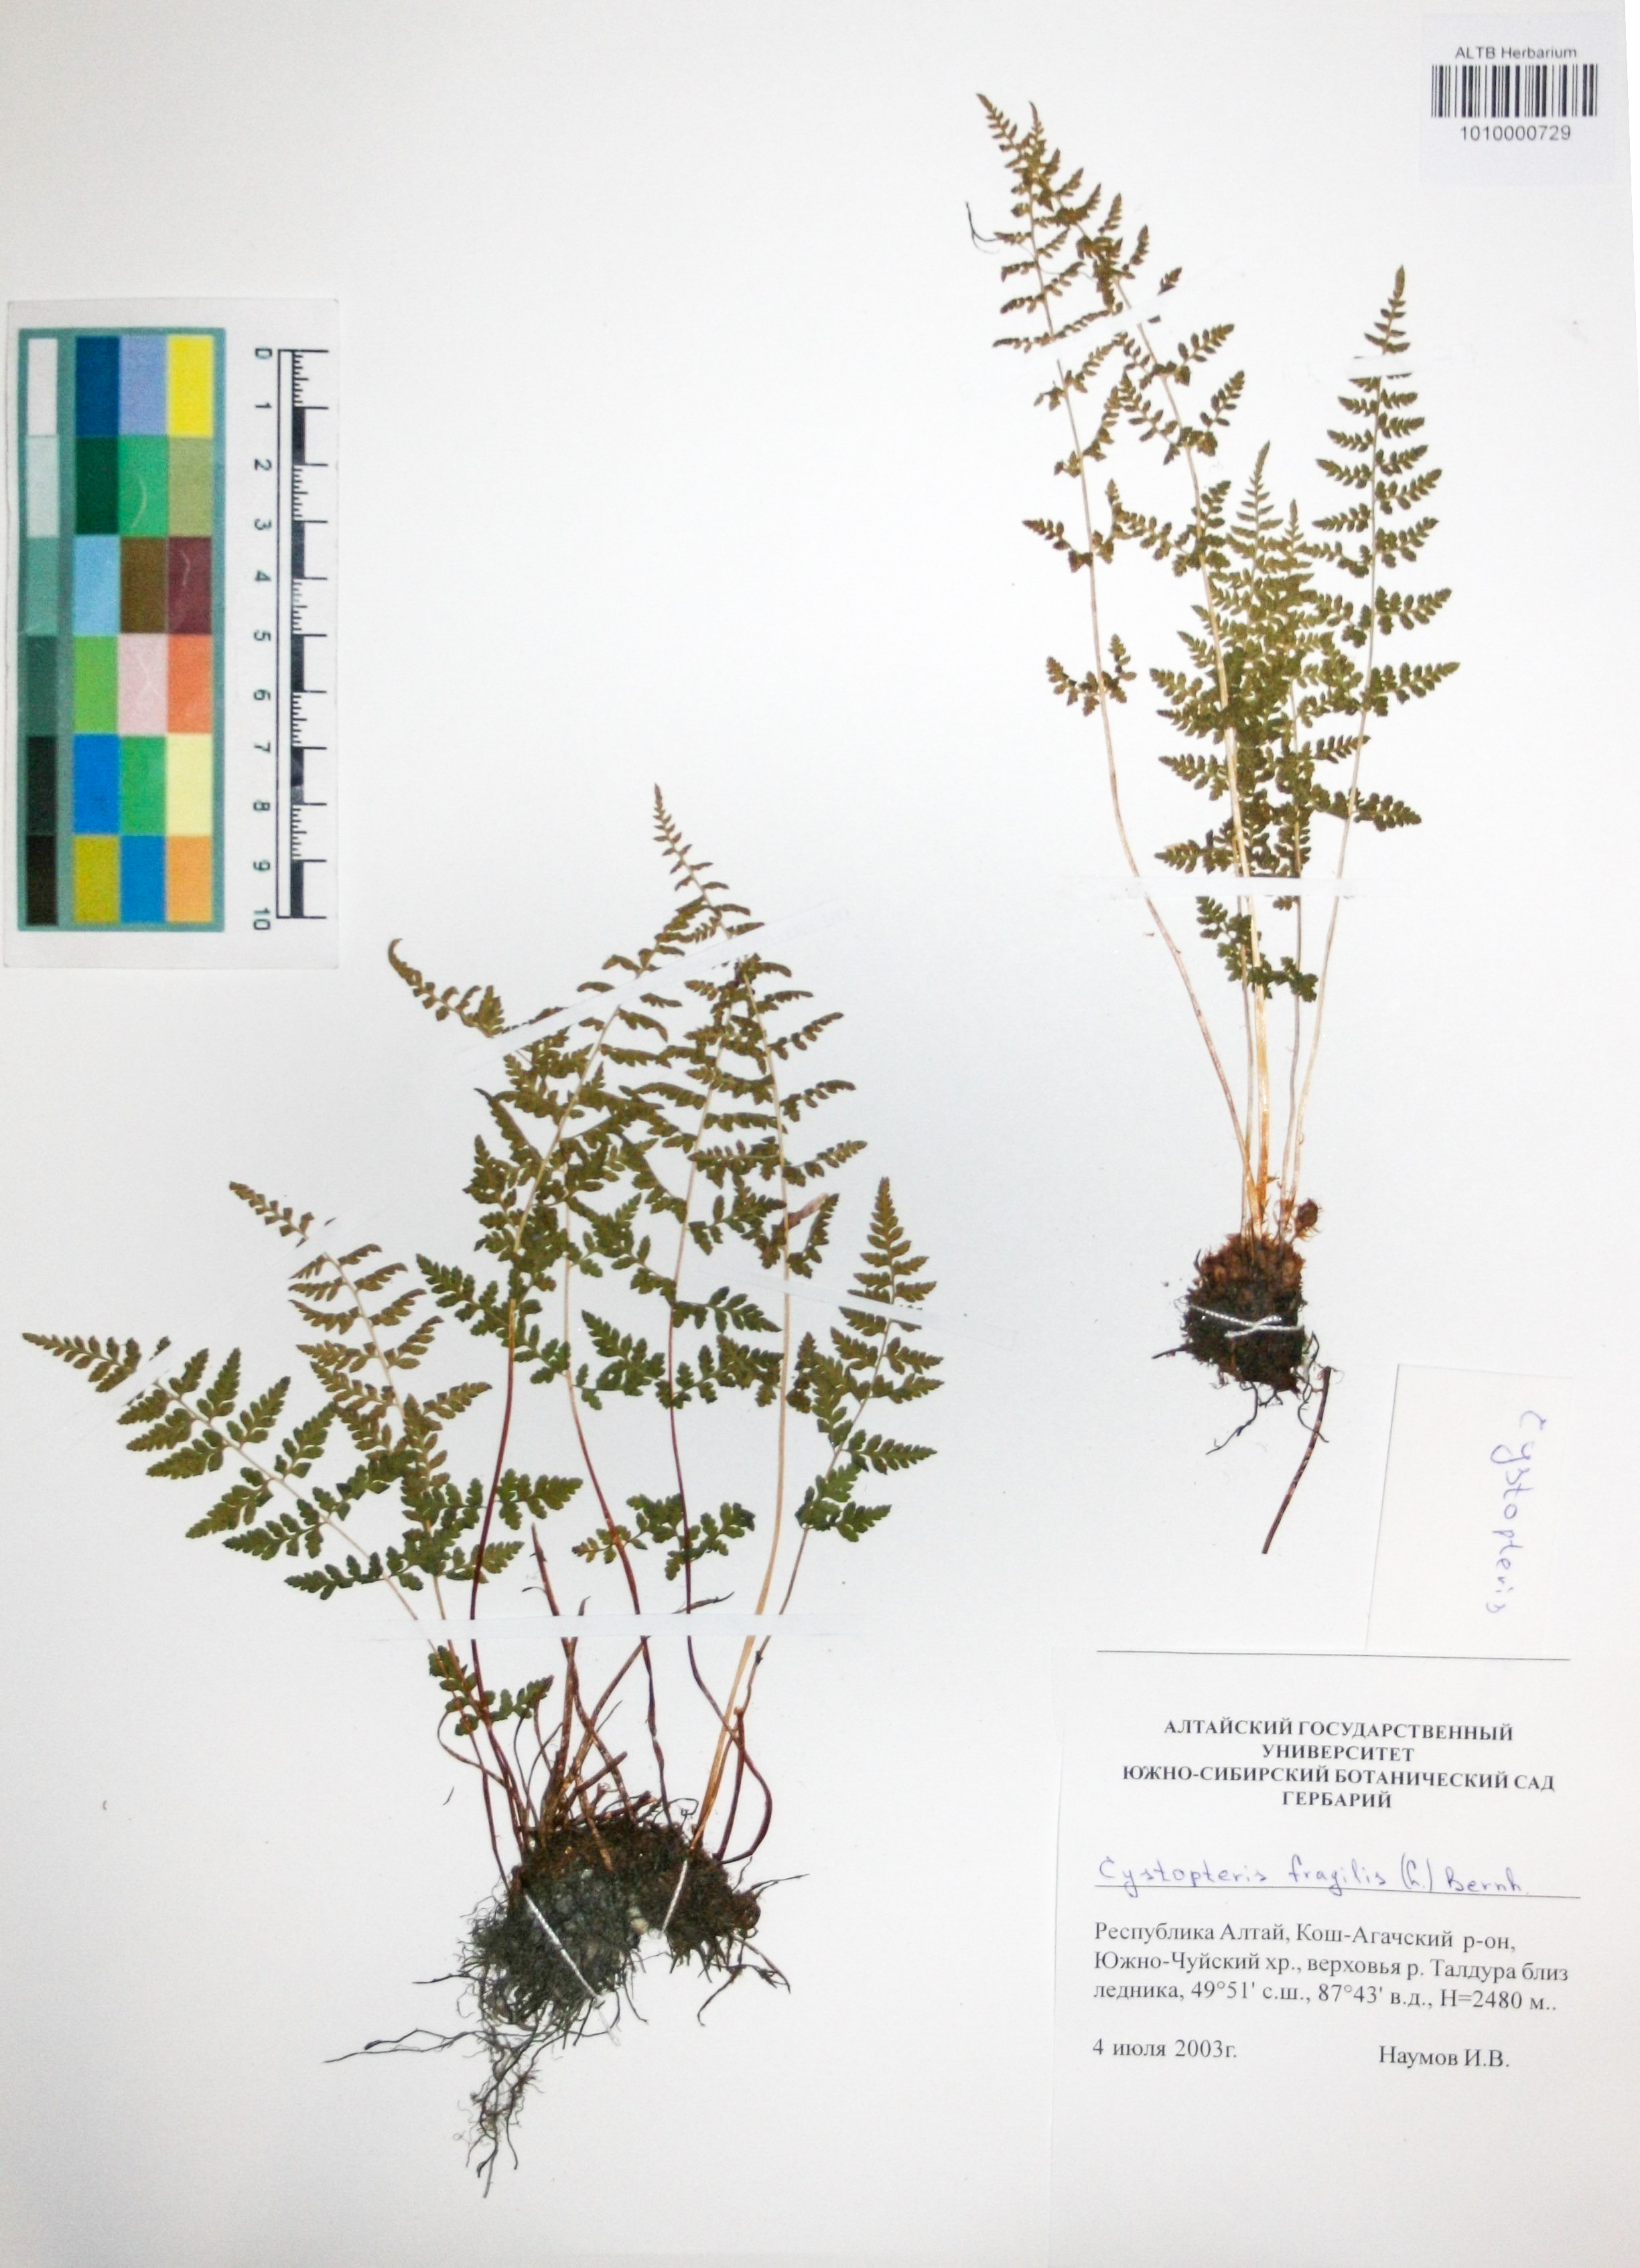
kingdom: Plantae
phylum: Tracheophyta
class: Polypodiopsida
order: Polypodiales
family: Cystopteridaceae
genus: Cystopteris
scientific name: Cystopteris fragilis
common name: Brittle bladder fern
